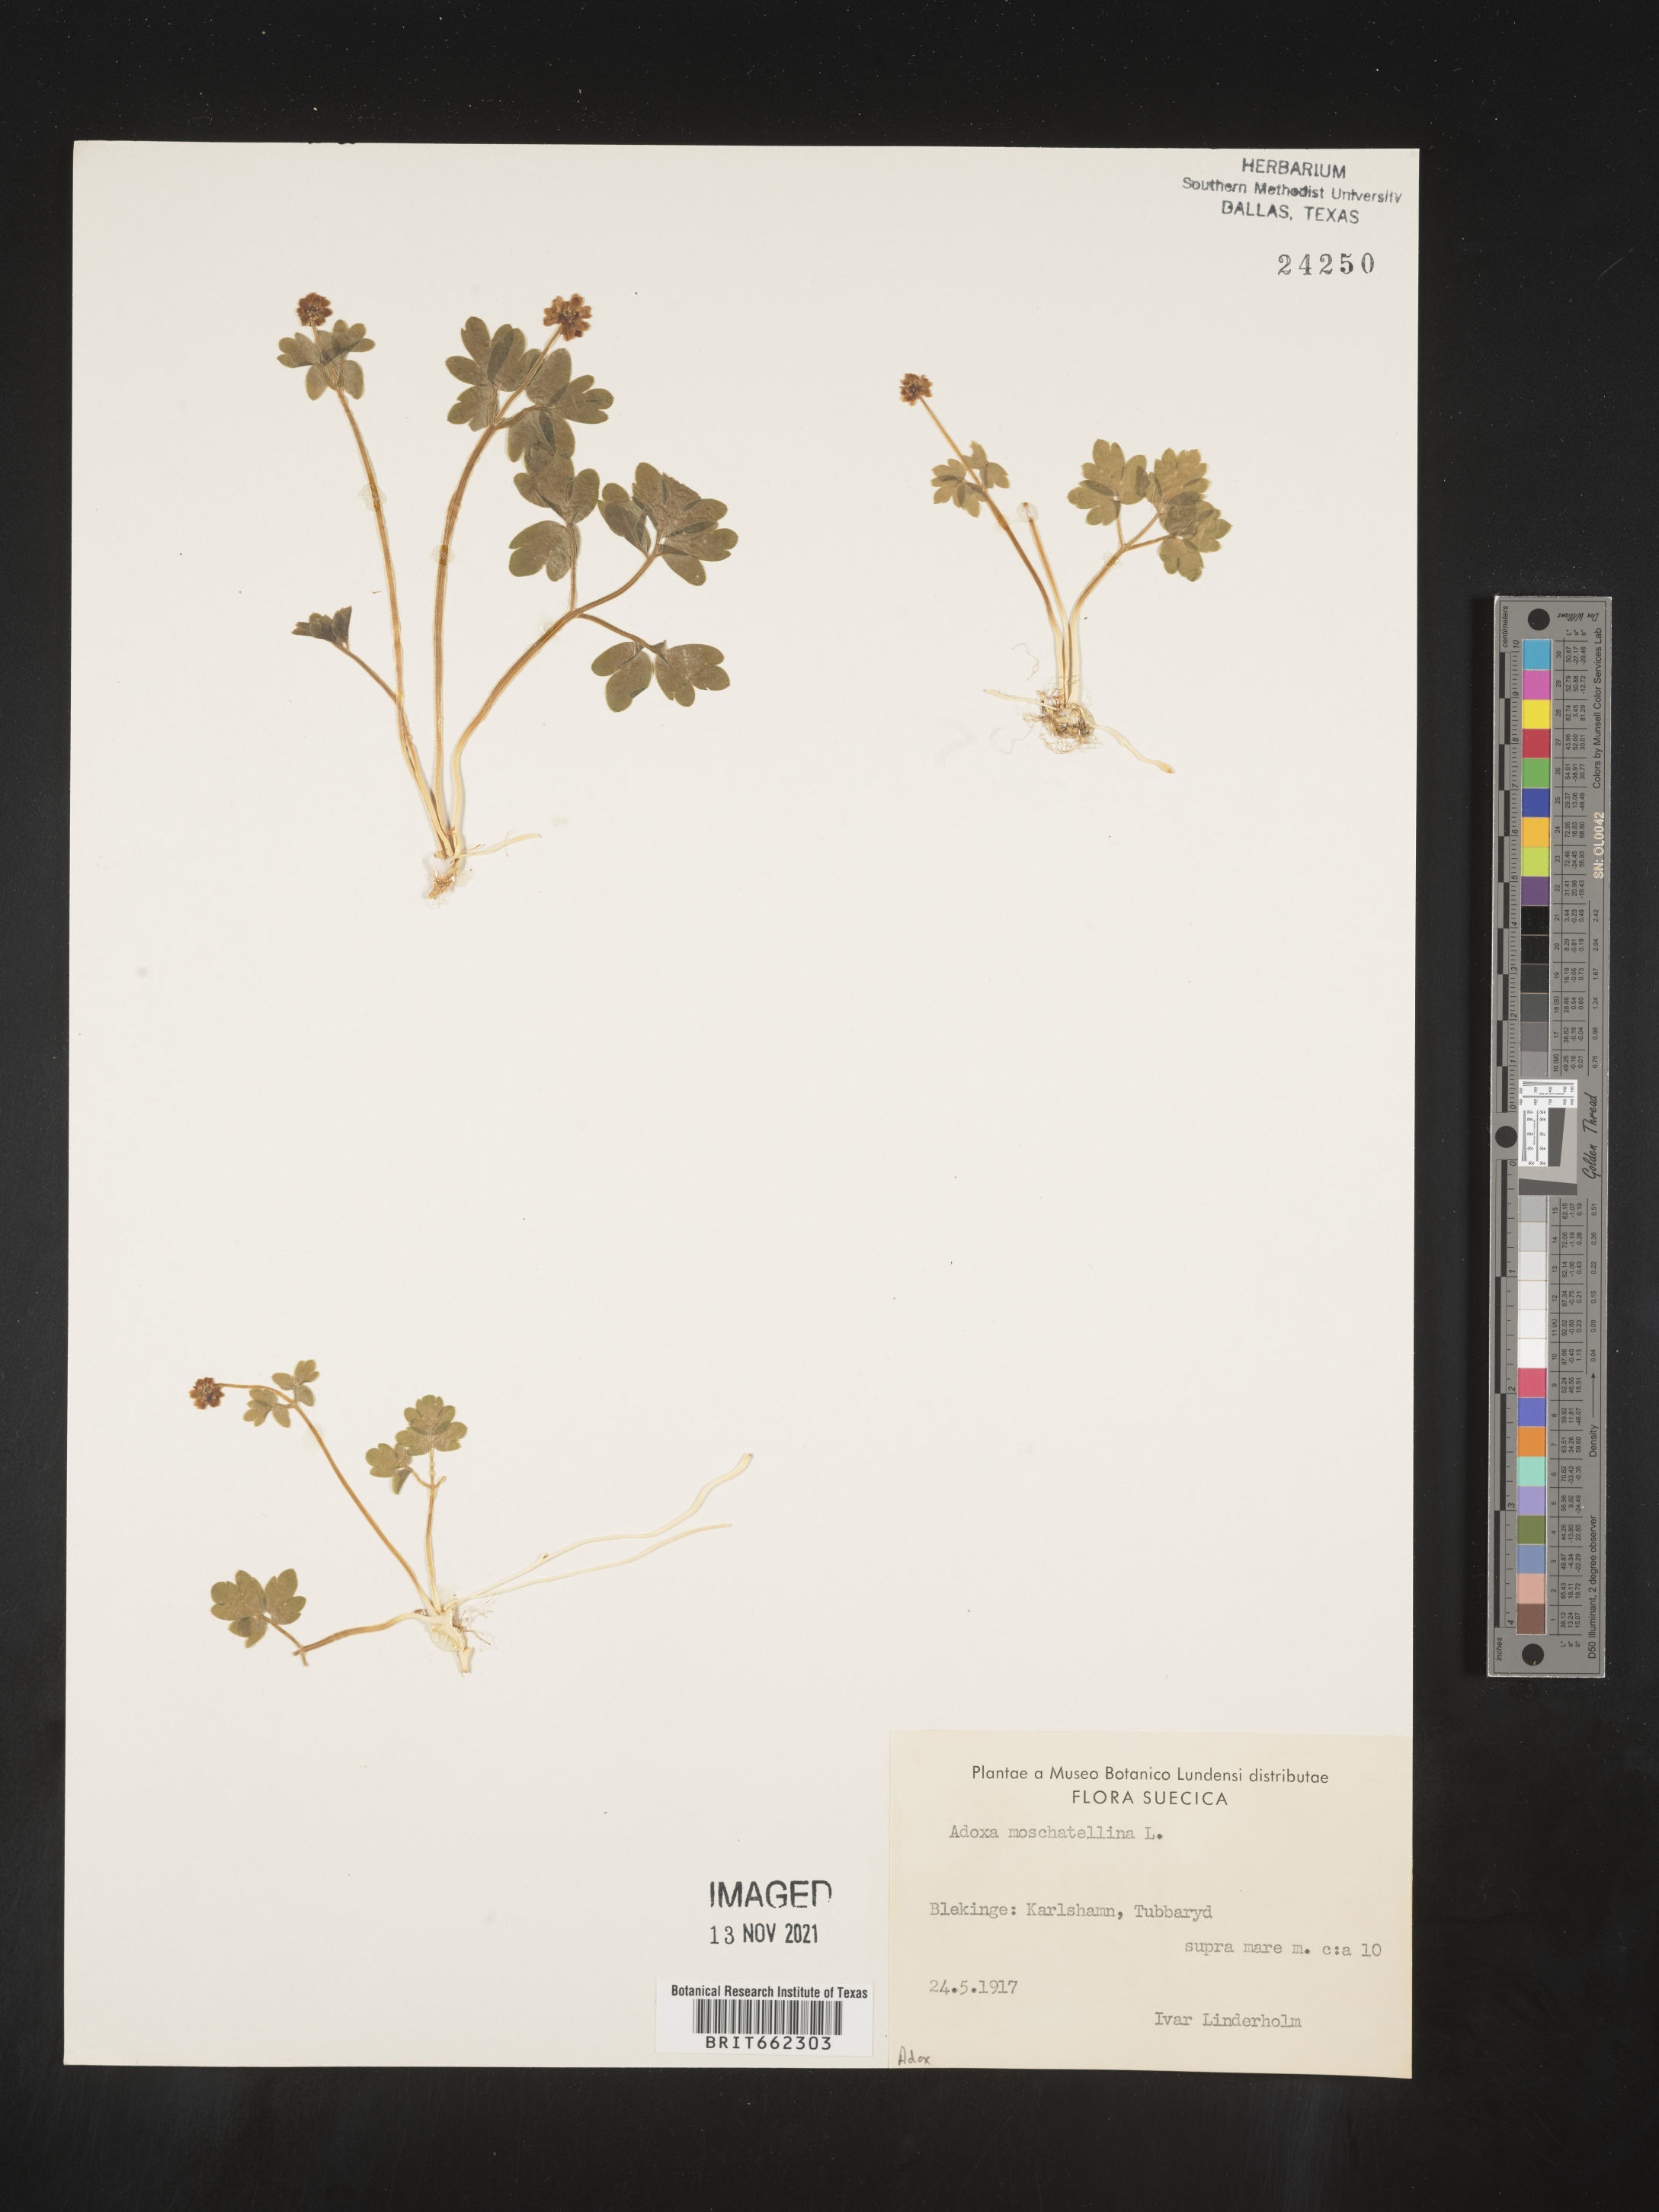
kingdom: Plantae
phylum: Tracheophyta
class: Magnoliopsida
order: Dipsacales
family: Viburnaceae
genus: Adoxa
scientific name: Adoxa
